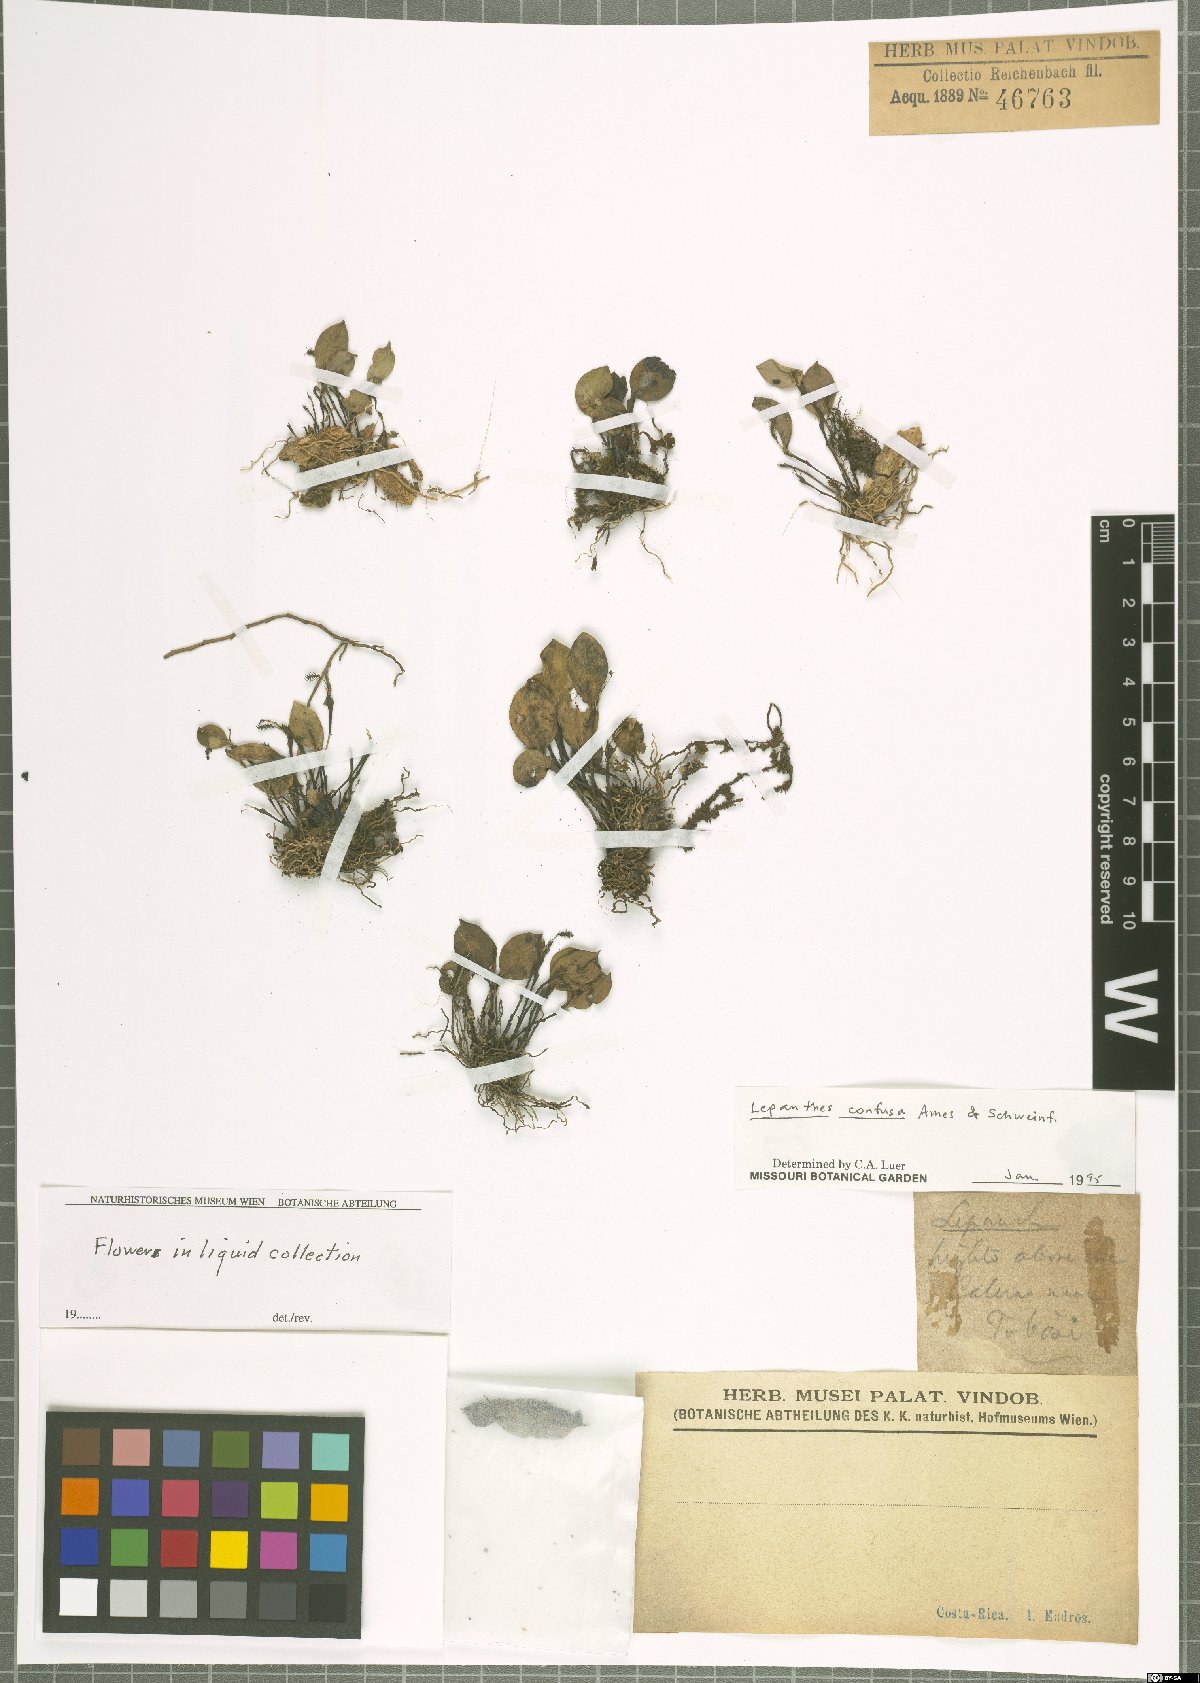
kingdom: Plantae
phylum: Tracheophyta
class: Liliopsida
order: Asparagales
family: Orchidaceae
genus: Lepanthes
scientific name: Lepanthes confusa
